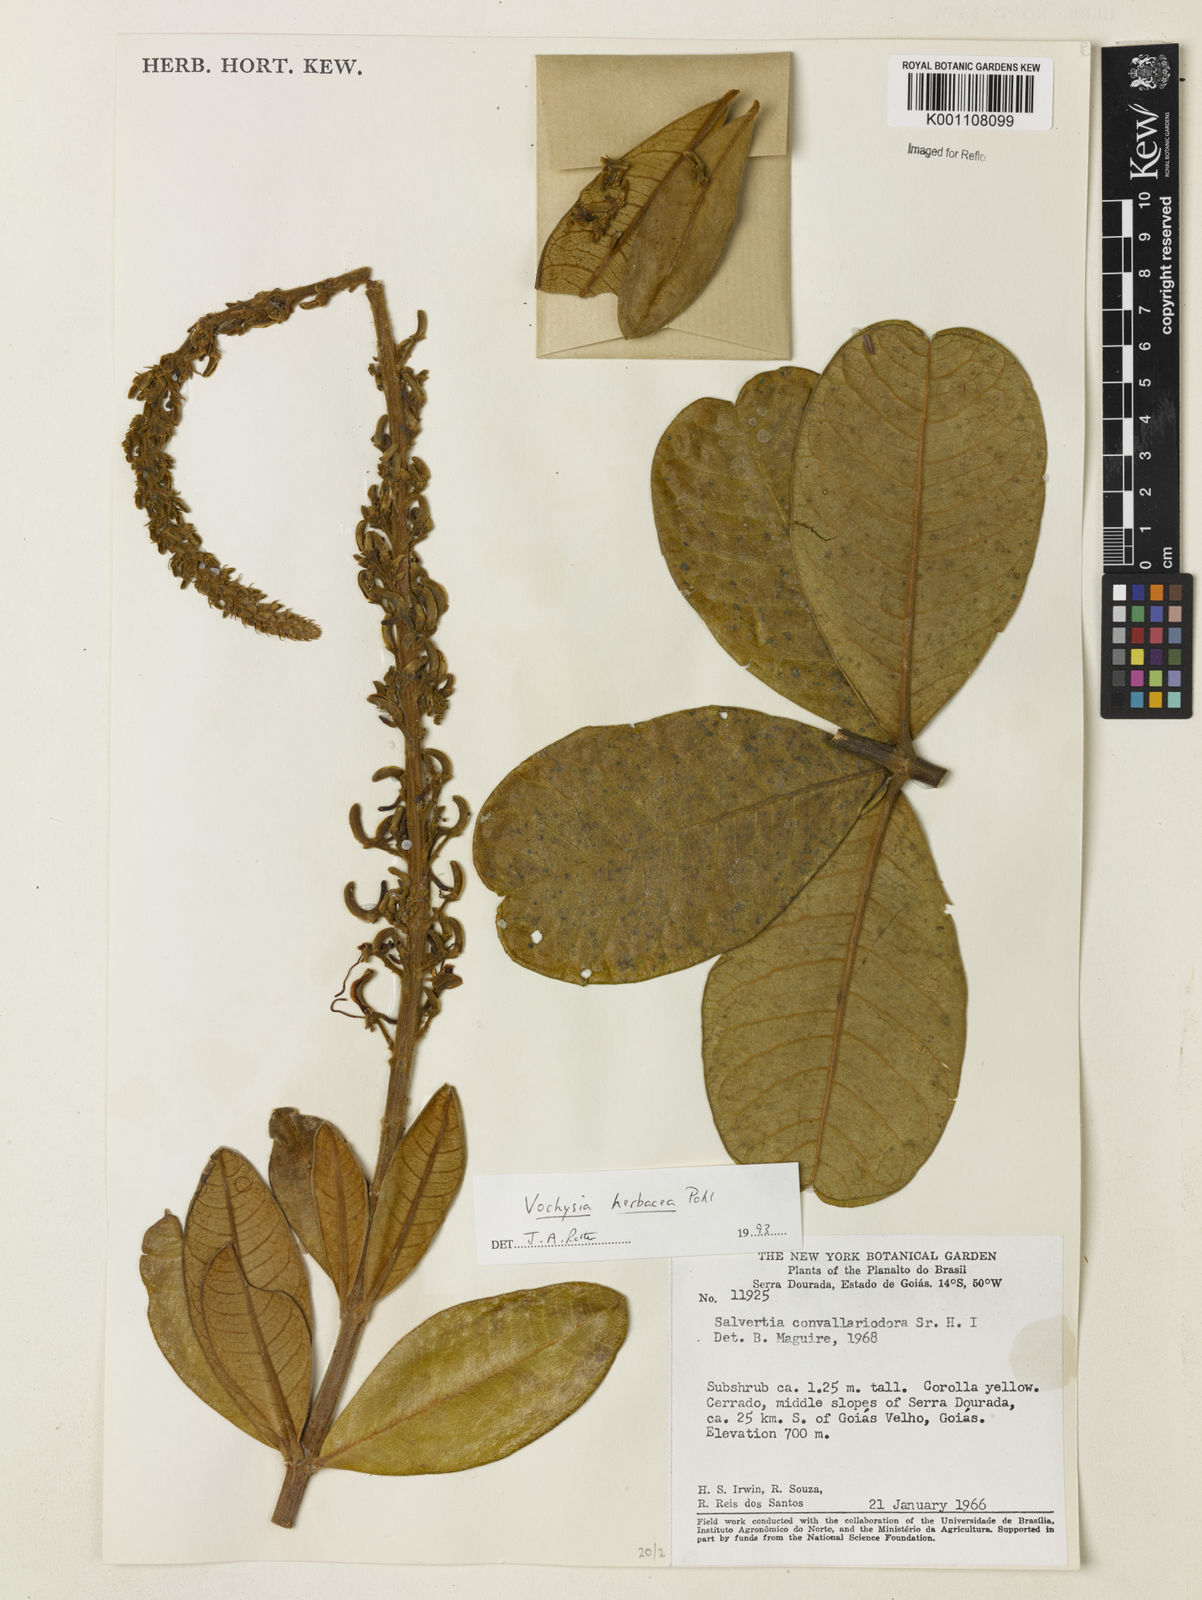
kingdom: Plantae
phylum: Tracheophyta
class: Magnoliopsida
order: Myrtales
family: Vochysiaceae
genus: Vochysia
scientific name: Vochysia herbacea
